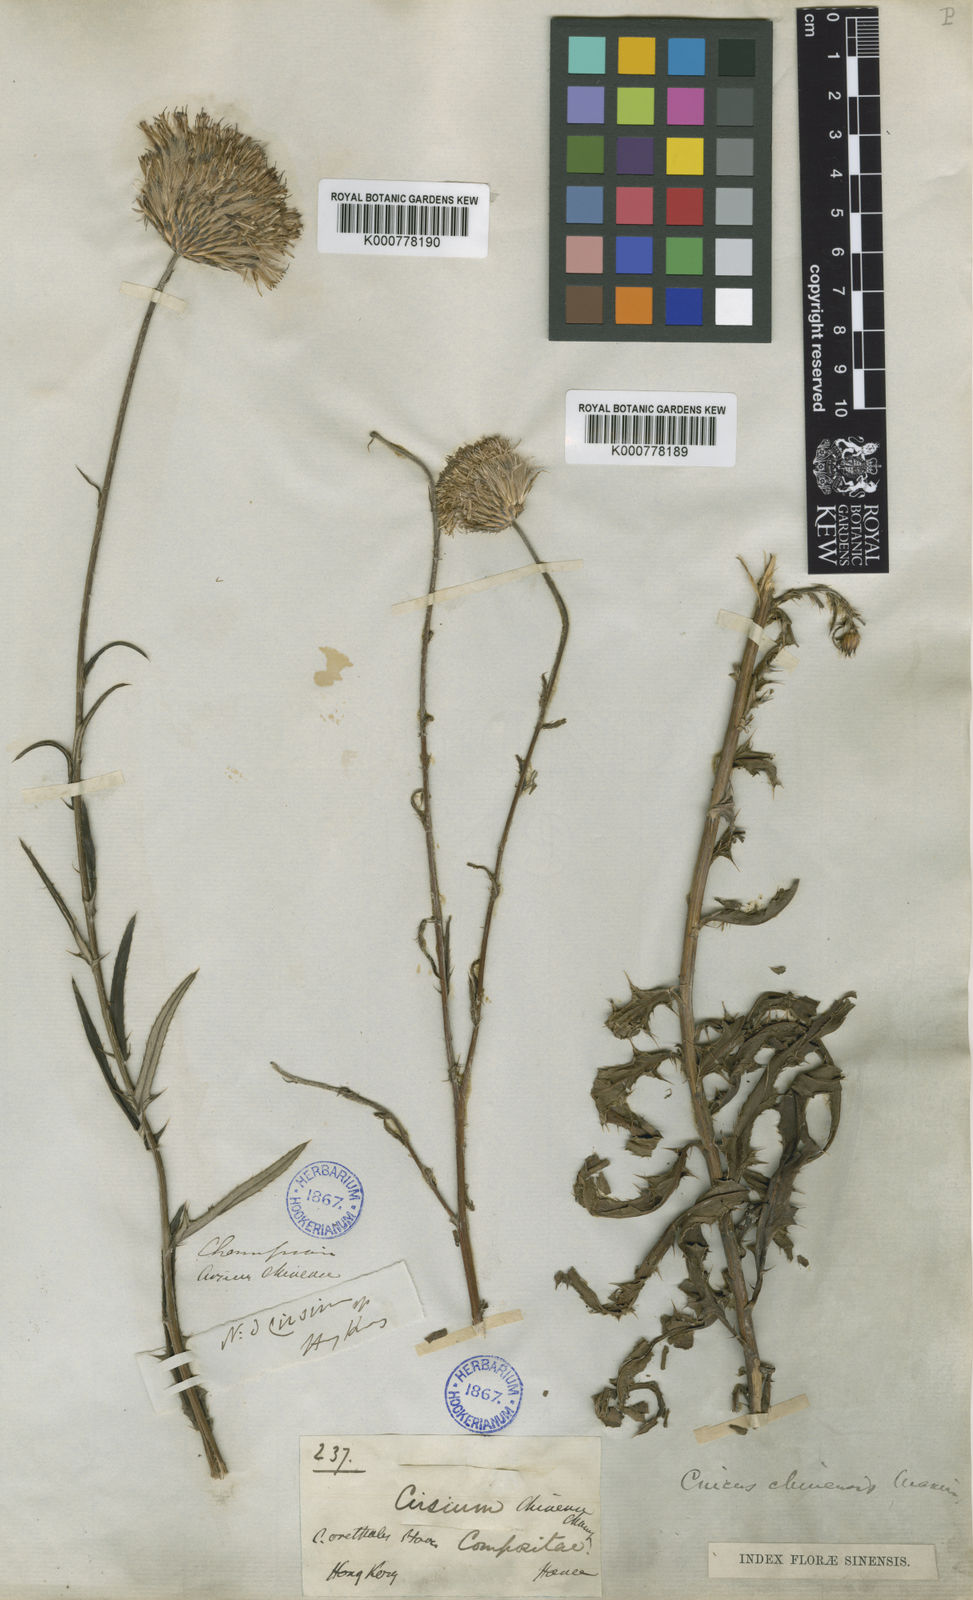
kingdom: Plantae
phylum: Tracheophyta
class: Magnoliopsida
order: Asterales
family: Asteraceae
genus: Cirsium
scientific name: Cirsium chinense
